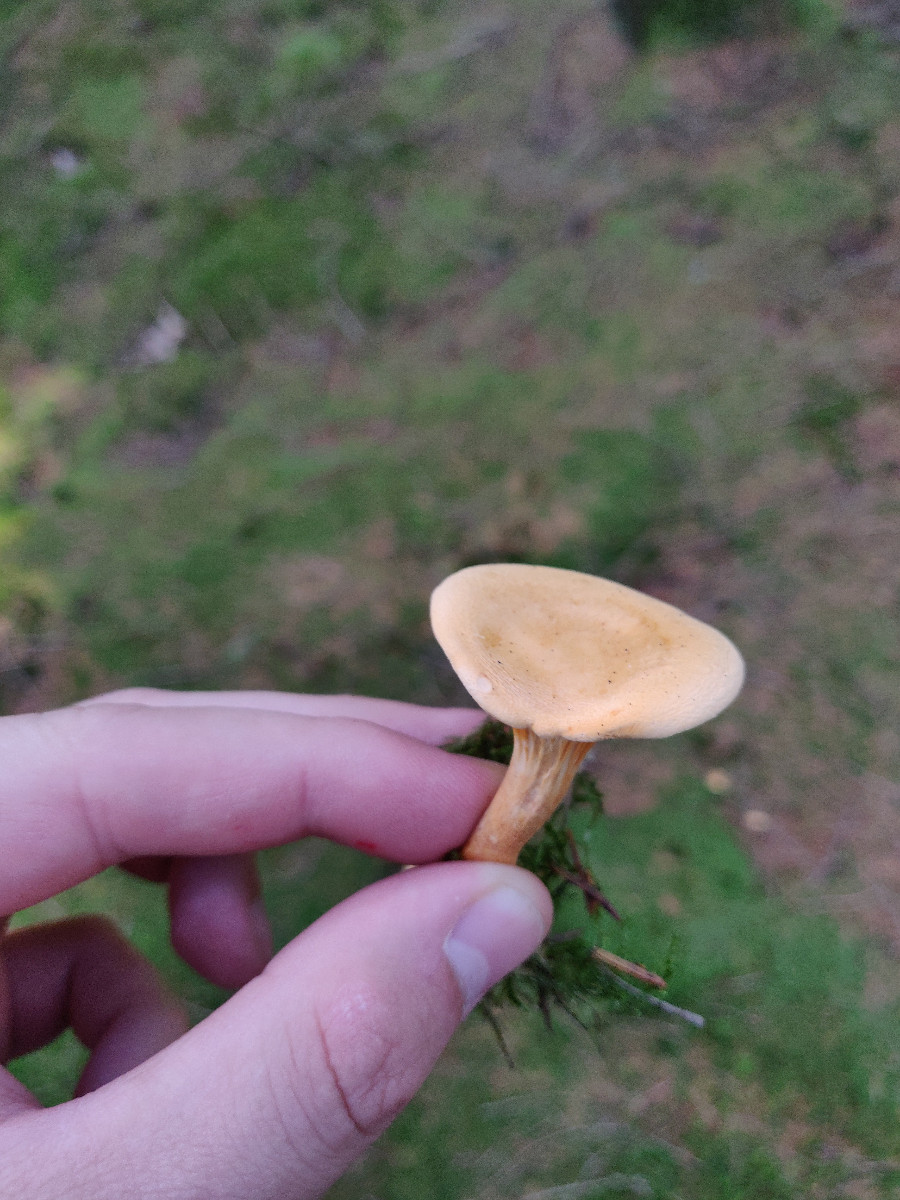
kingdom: Fungi
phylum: Basidiomycota
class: Agaricomycetes
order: Boletales
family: Hygrophoropsidaceae
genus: Hygrophoropsis
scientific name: Hygrophoropsis aurantiaca
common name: almindelig orangekantarel
